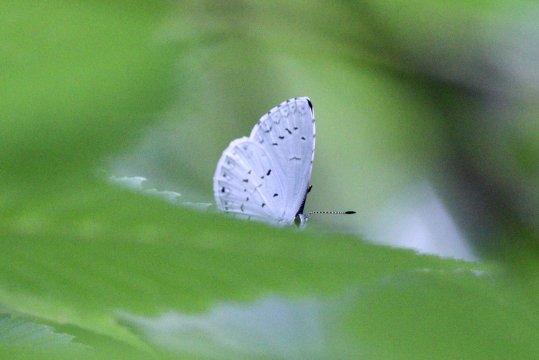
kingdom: Animalia
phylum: Arthropoda
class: Insecta
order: Lepidoptera
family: Lycaenidae
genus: Cyaniris
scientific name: Cyaniris neglecta
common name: Summer Azure
